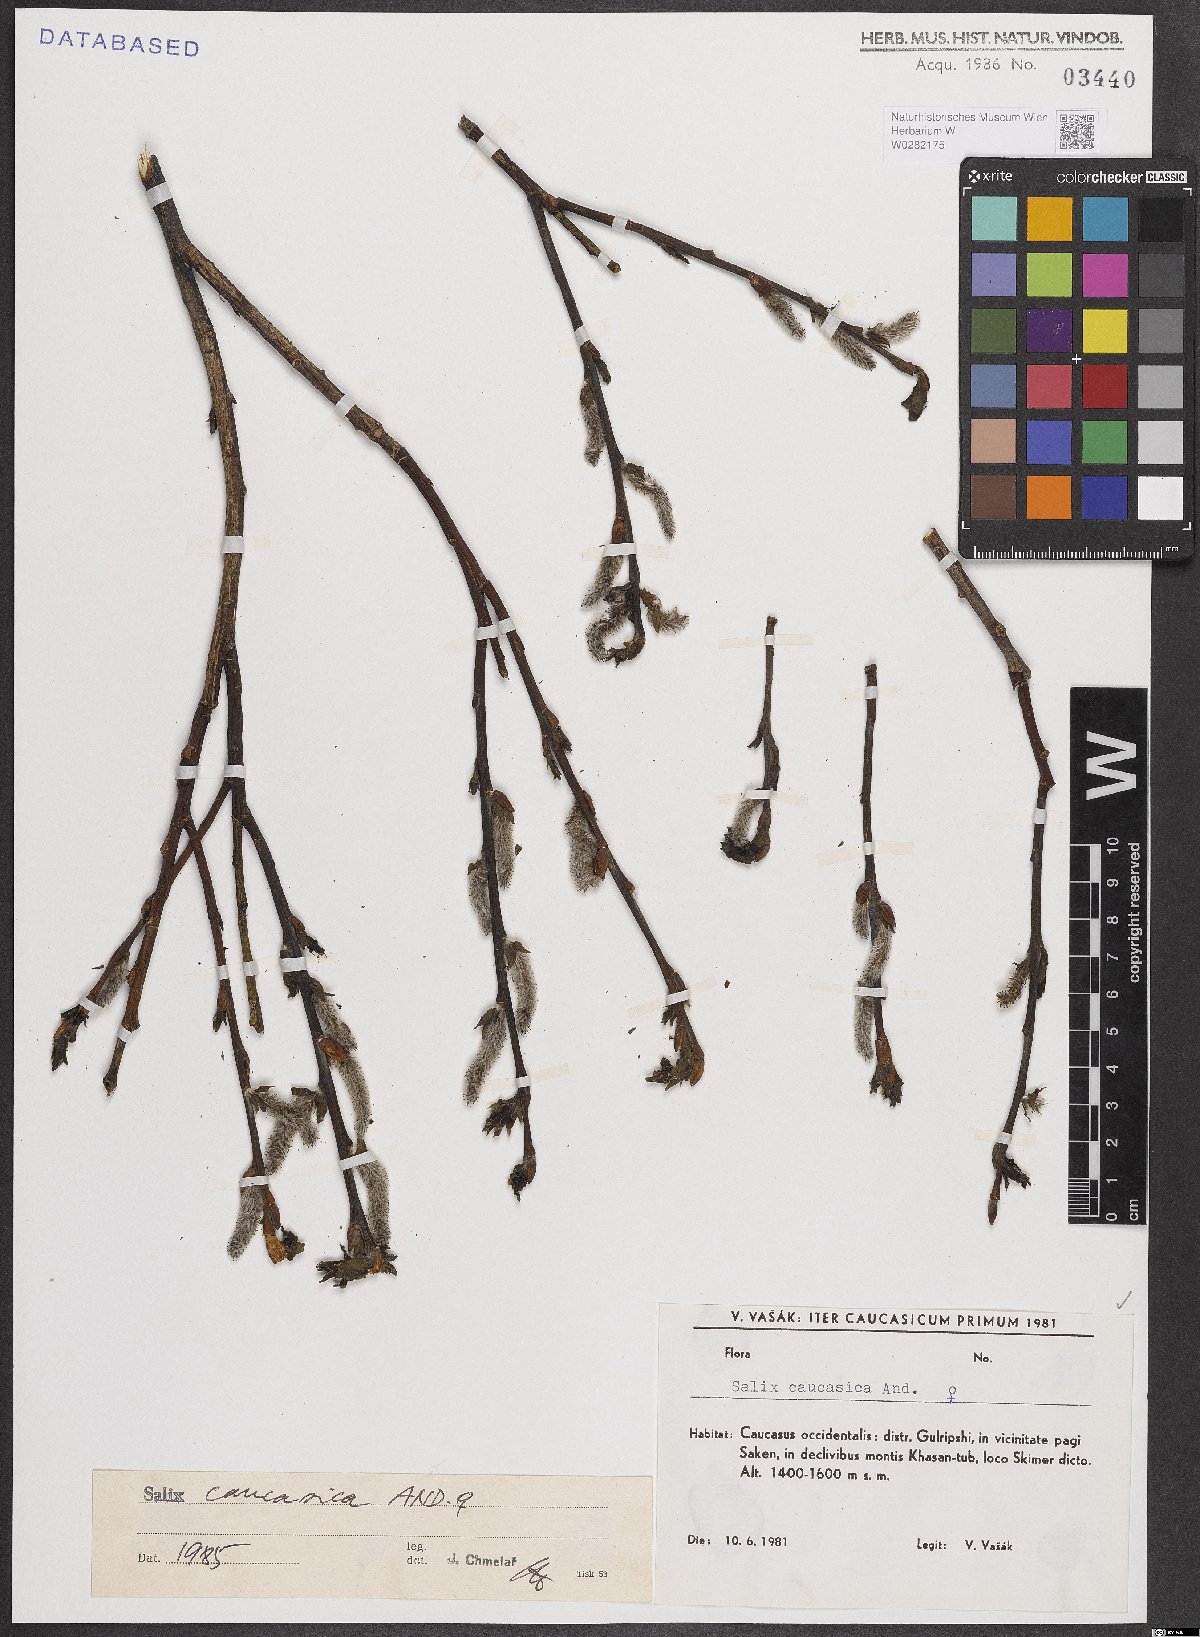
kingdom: Plantae
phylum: Tracheophyta
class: Magnoliopsida
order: Malpighiales
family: Salicaceae
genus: Salix
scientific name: Salix caucasica
